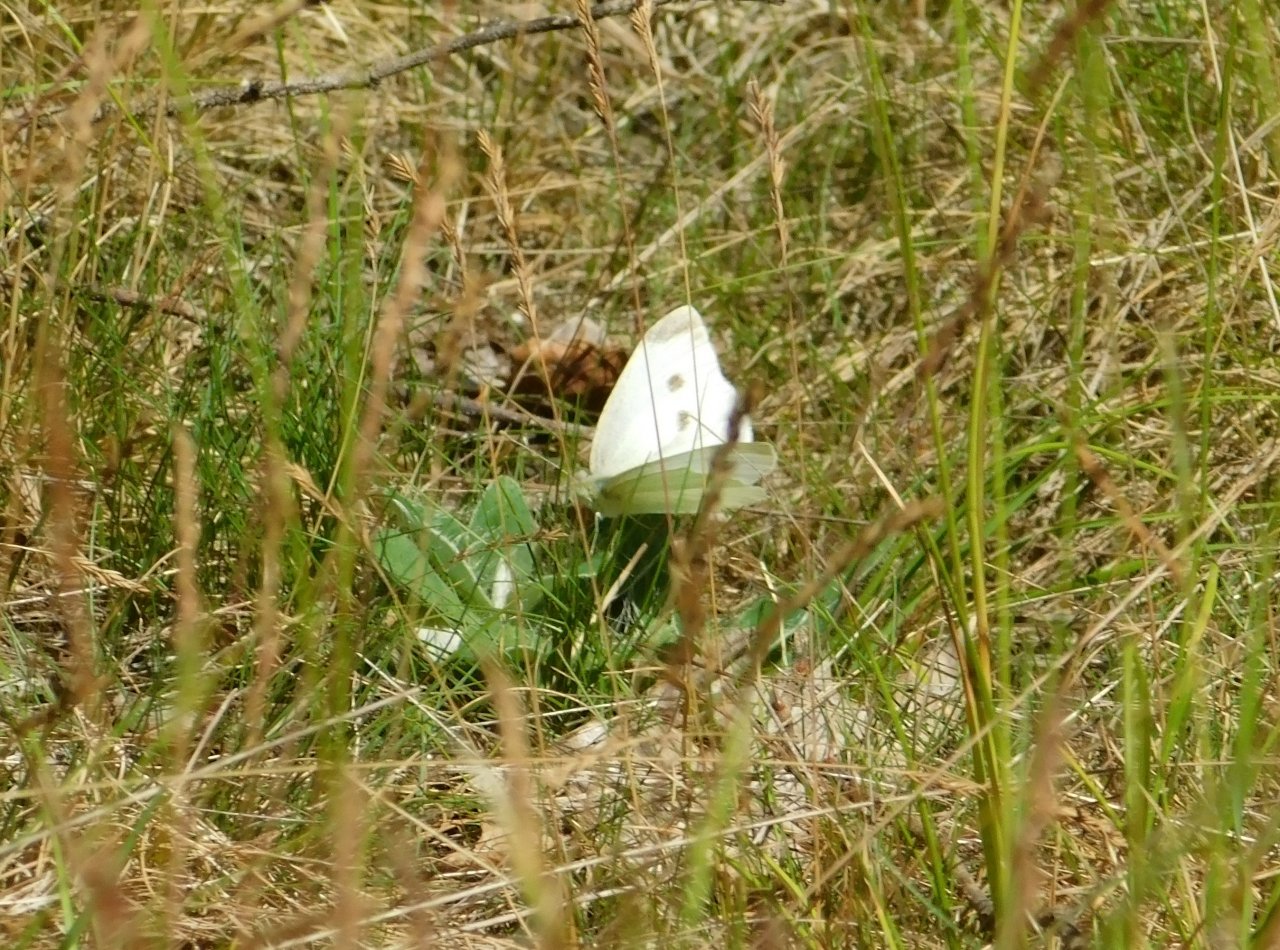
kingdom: Animalia
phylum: Arthropoda
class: Insecta
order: Lepidoptera
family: Pieridae
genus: Pieris
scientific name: Pieris rapae
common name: Cabbage White
